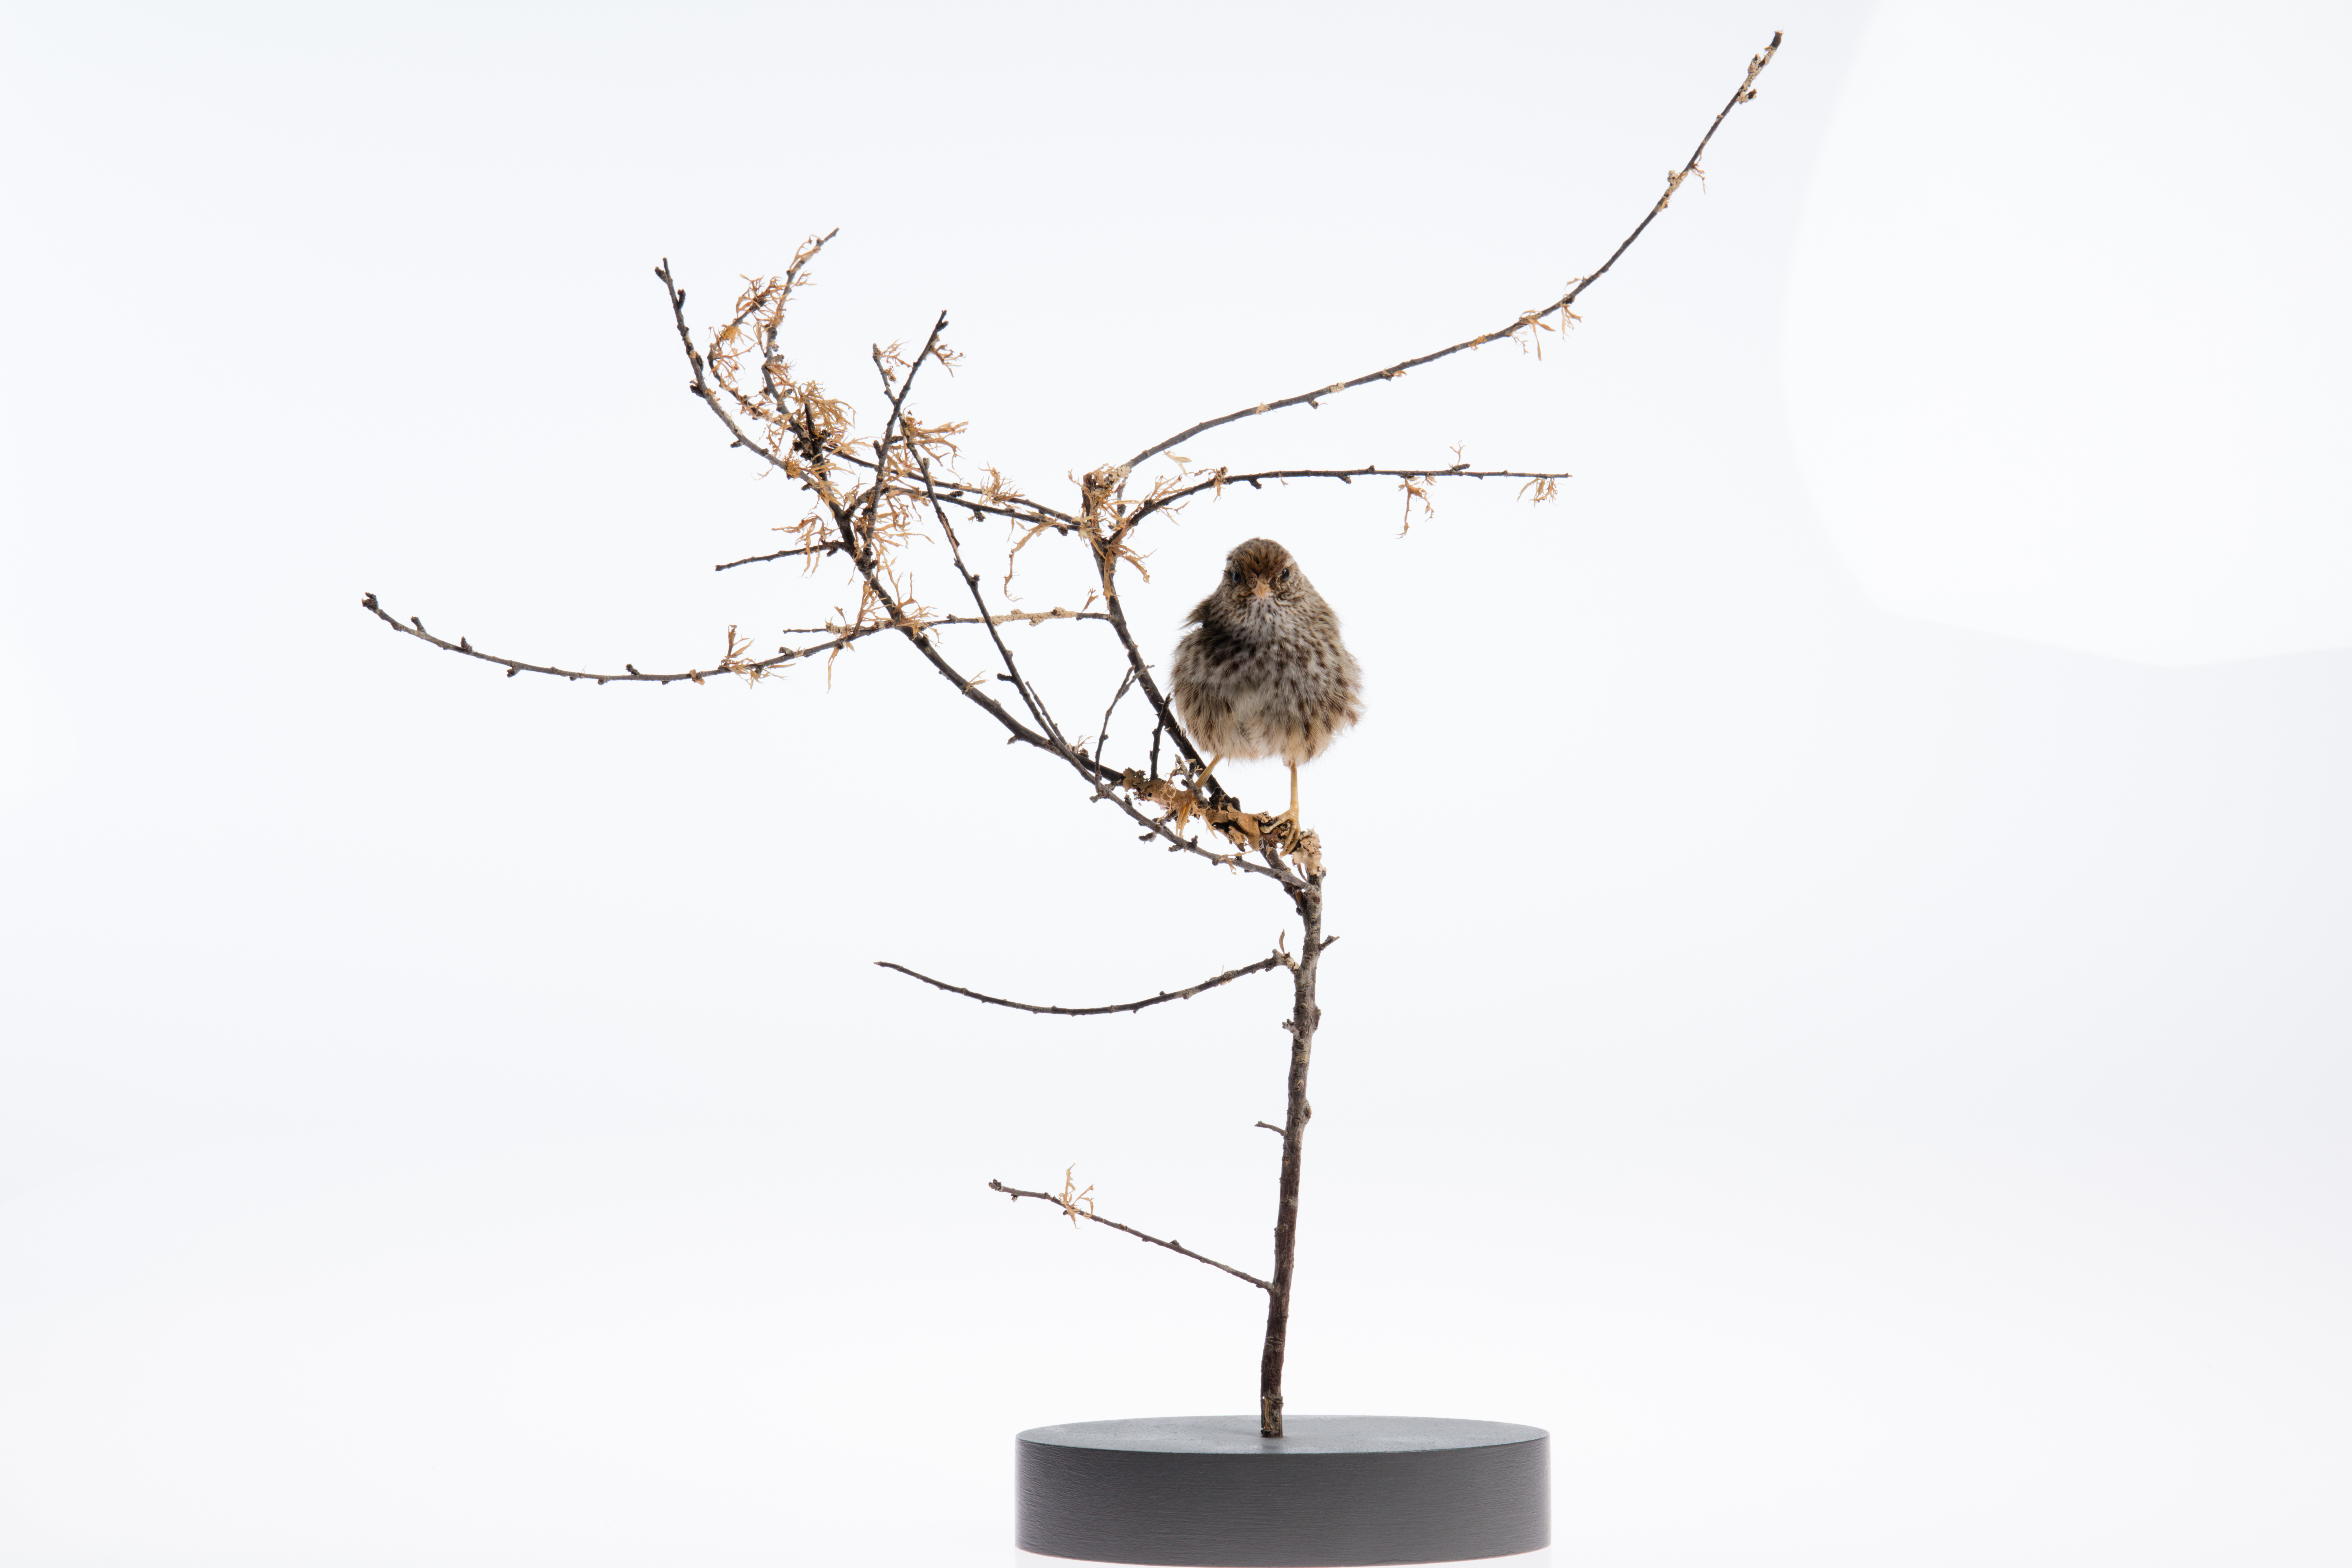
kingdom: Animalia
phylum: Chordata
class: Aves
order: Passeriformes
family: Locustellidae
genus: Megalurus
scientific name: Megalurus punctatus
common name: New zealand fernbird
